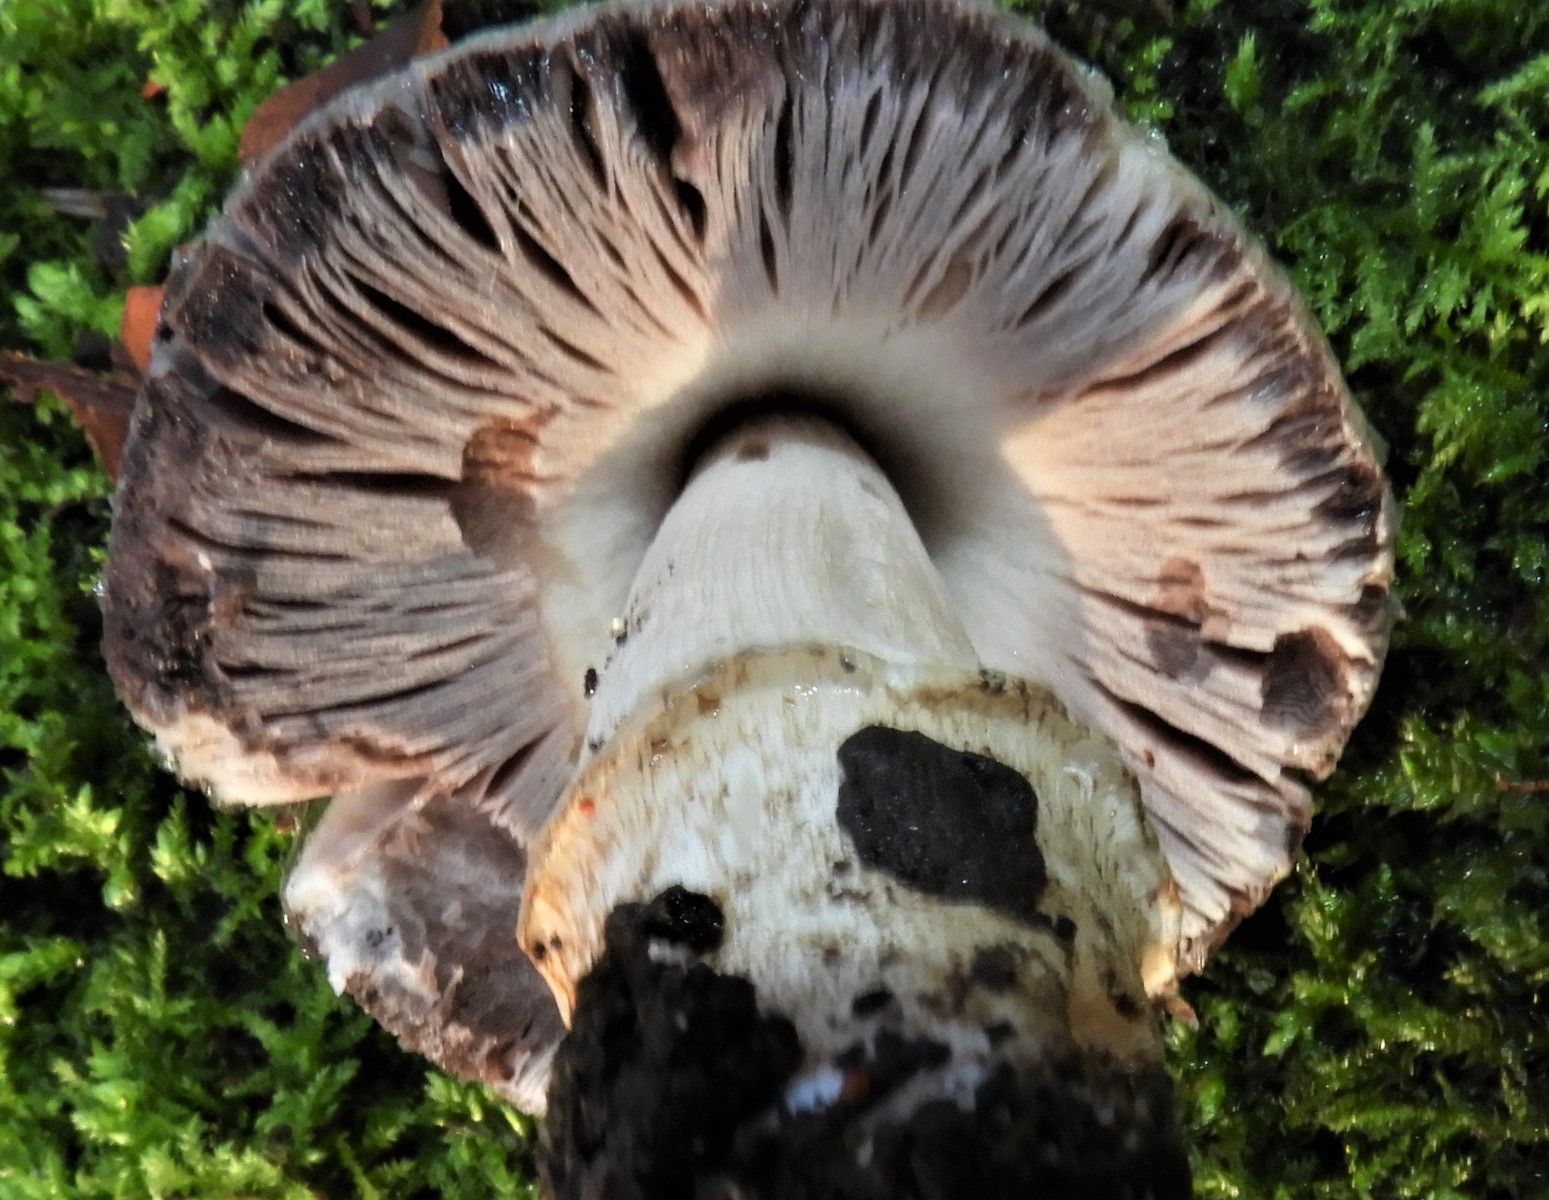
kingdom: Fungi
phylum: Basidiomycota
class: Agaricomycetes
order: Agaricales
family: Psathyrellaceae
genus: Coprinopsis
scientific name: Coprinopsis
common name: blækhat
